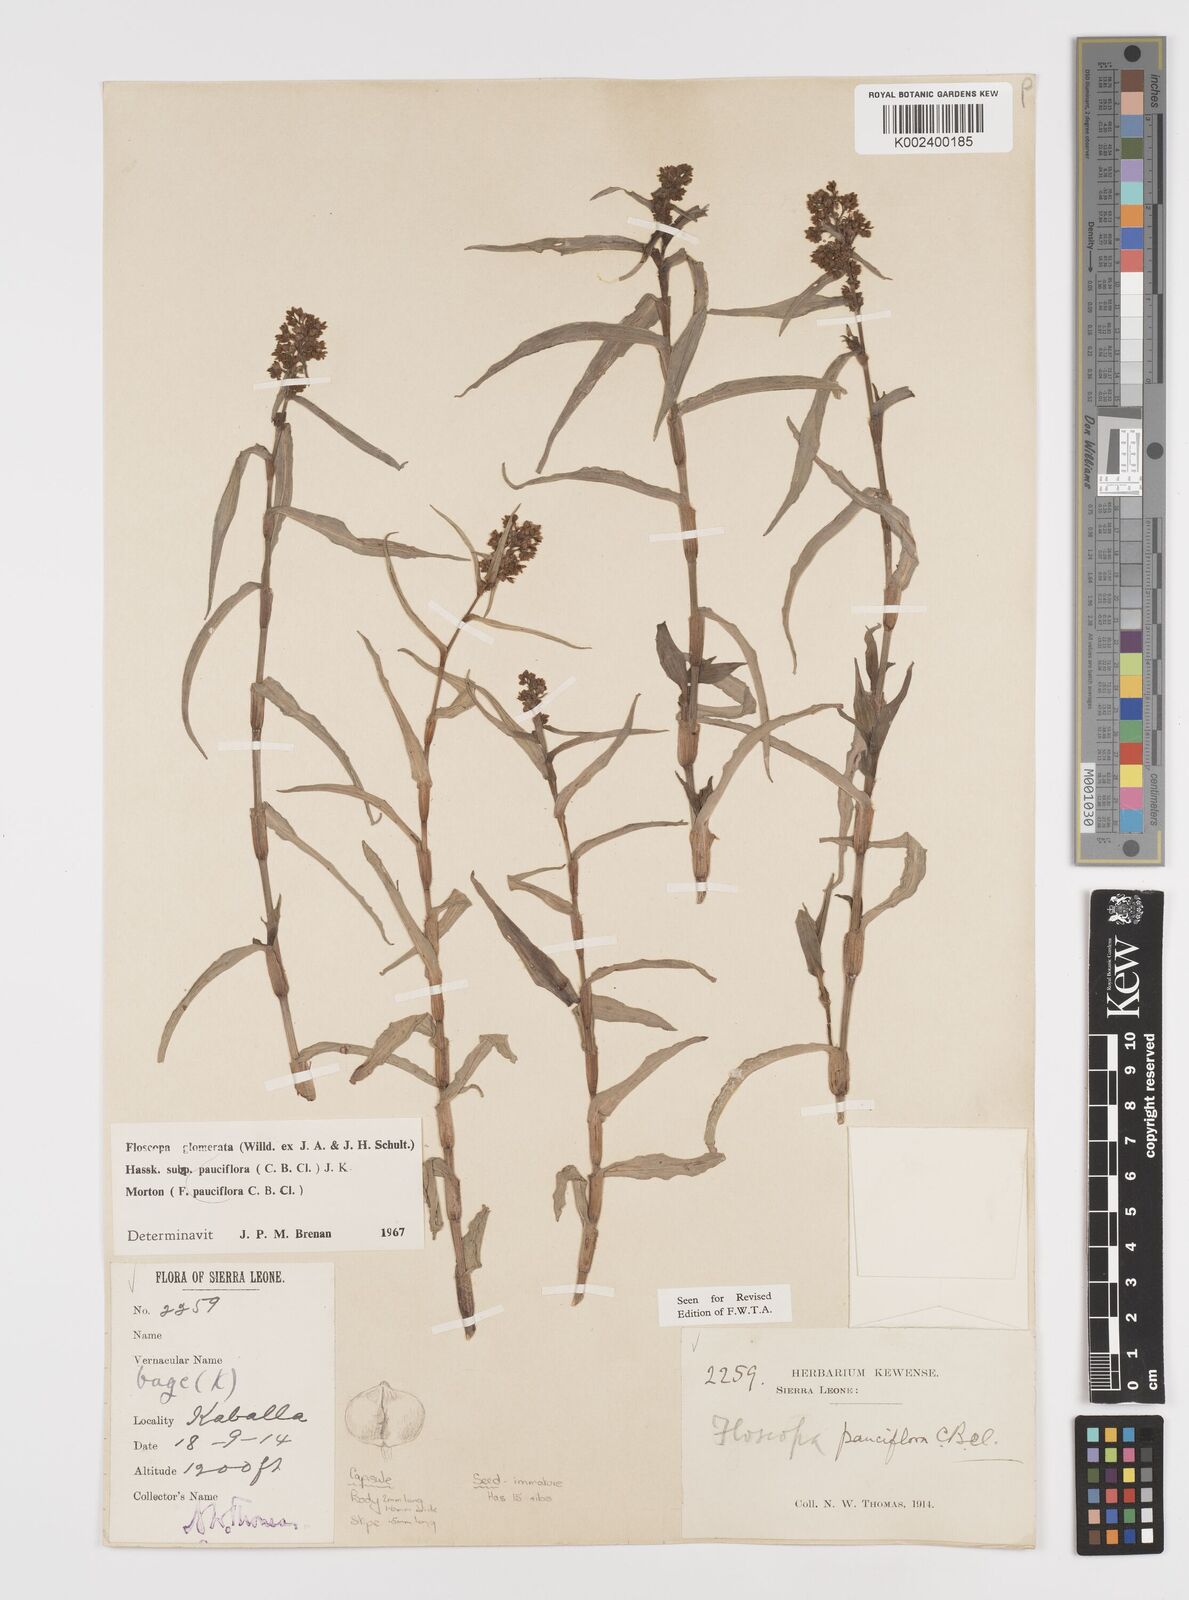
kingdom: Plantae
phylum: Tracheophyta
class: Liliopsida
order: Commelinales
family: Commelinaceae
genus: Floscopa
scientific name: Floscopa glomerata
